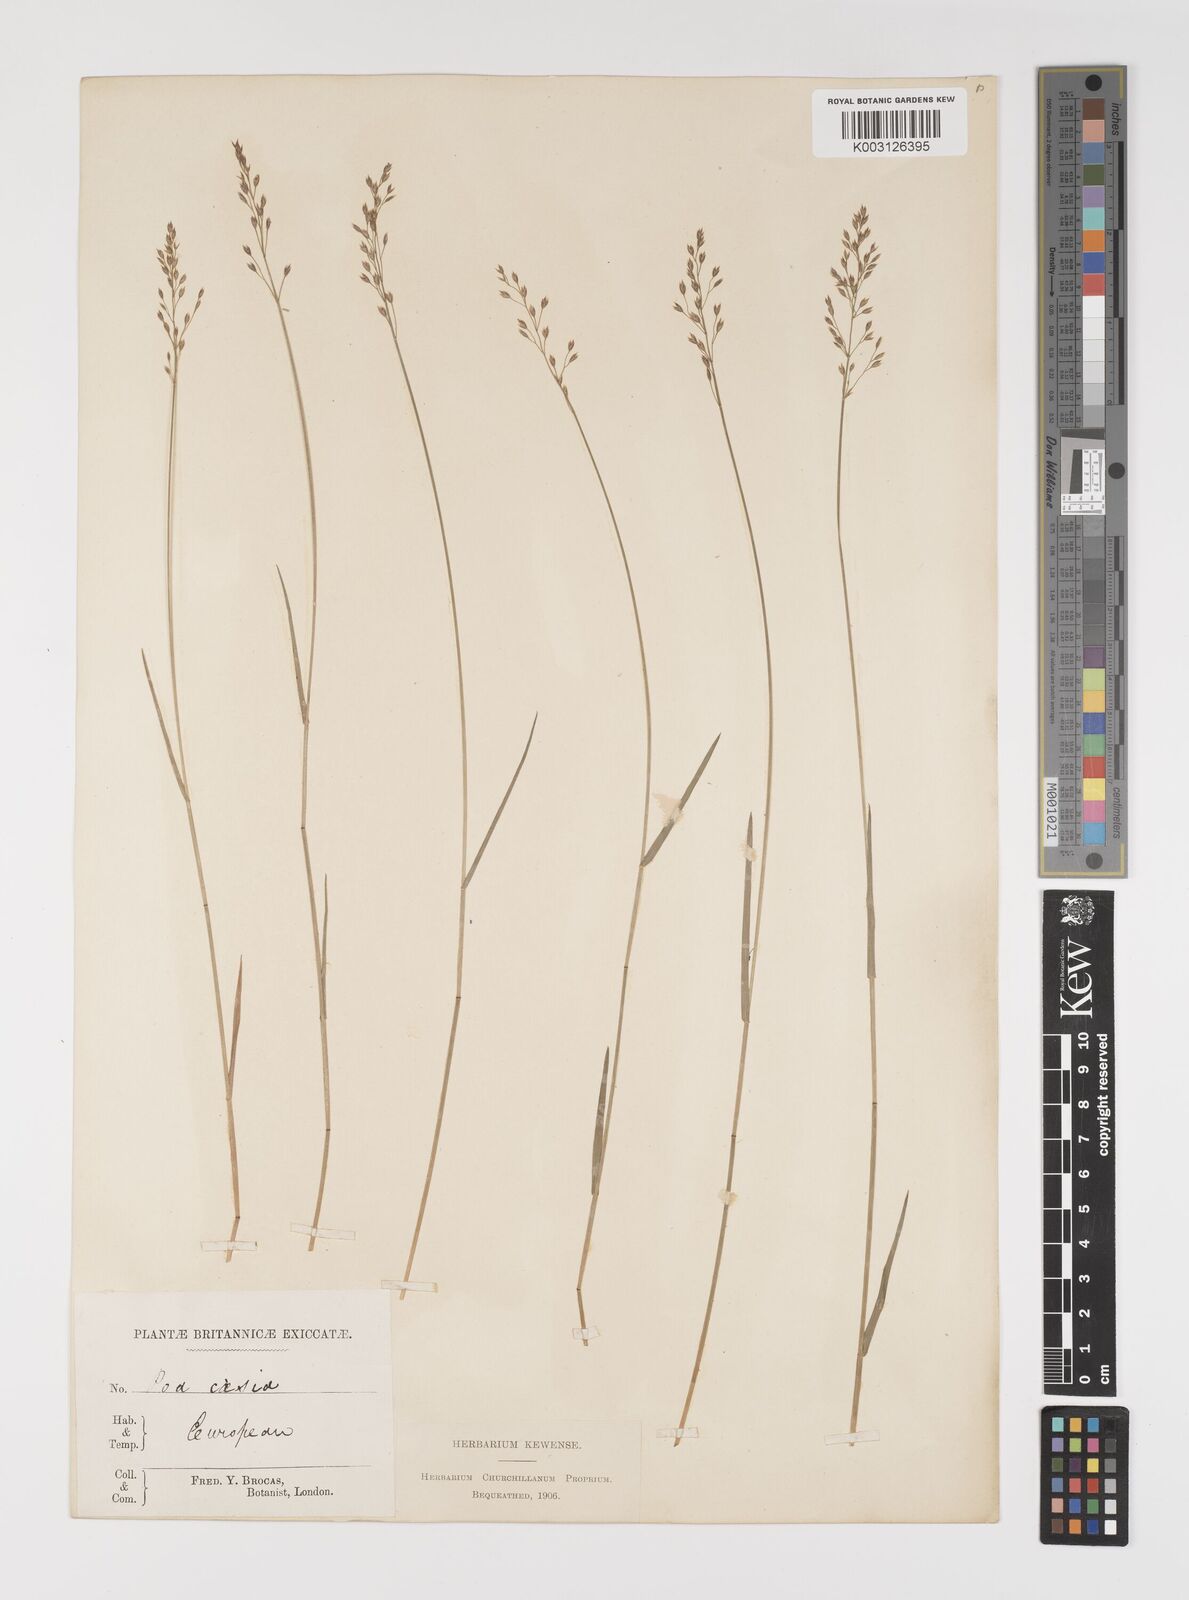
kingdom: Plantae
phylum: Tracheophyta
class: Liliopsida
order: Poales
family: Poaceae
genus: Poa
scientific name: Poa glauca
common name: Glaucous bluegrass
